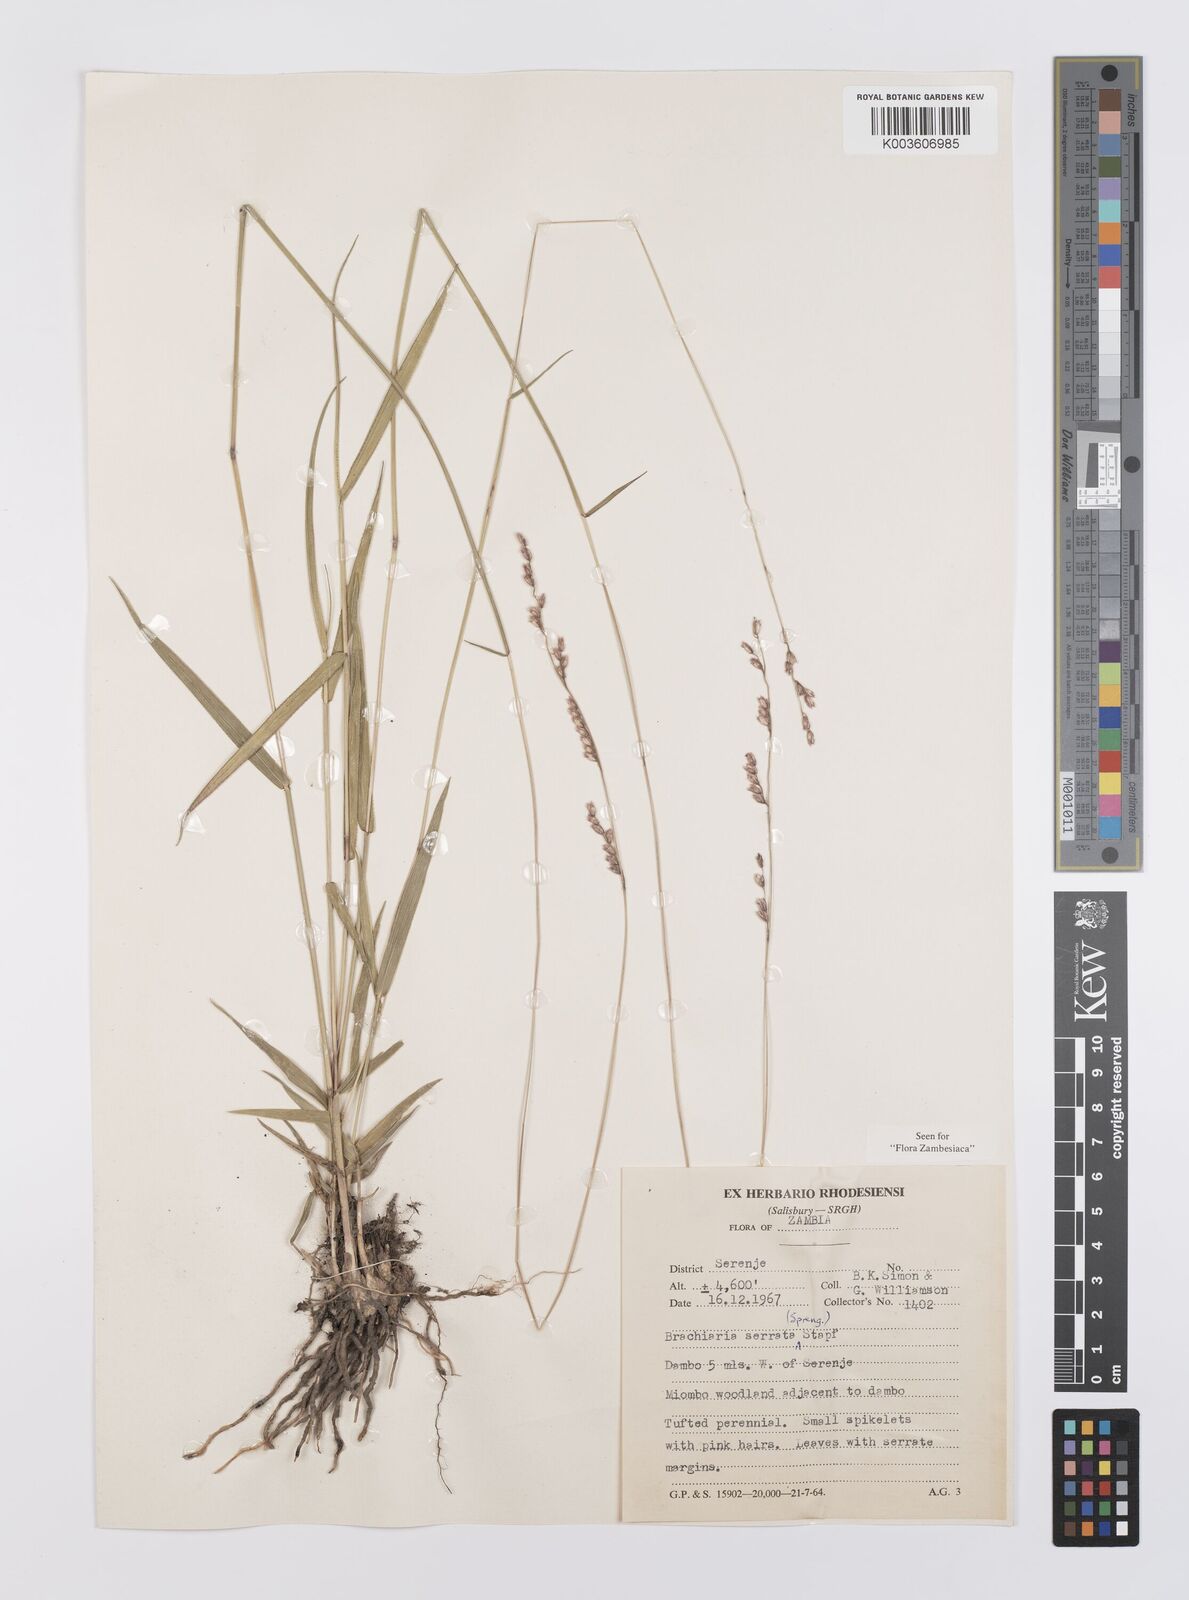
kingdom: Plantae
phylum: Tracheophyta
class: Liliopsida
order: Poales
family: Poaceae
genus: Urochloa
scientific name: Urochloa serrata
